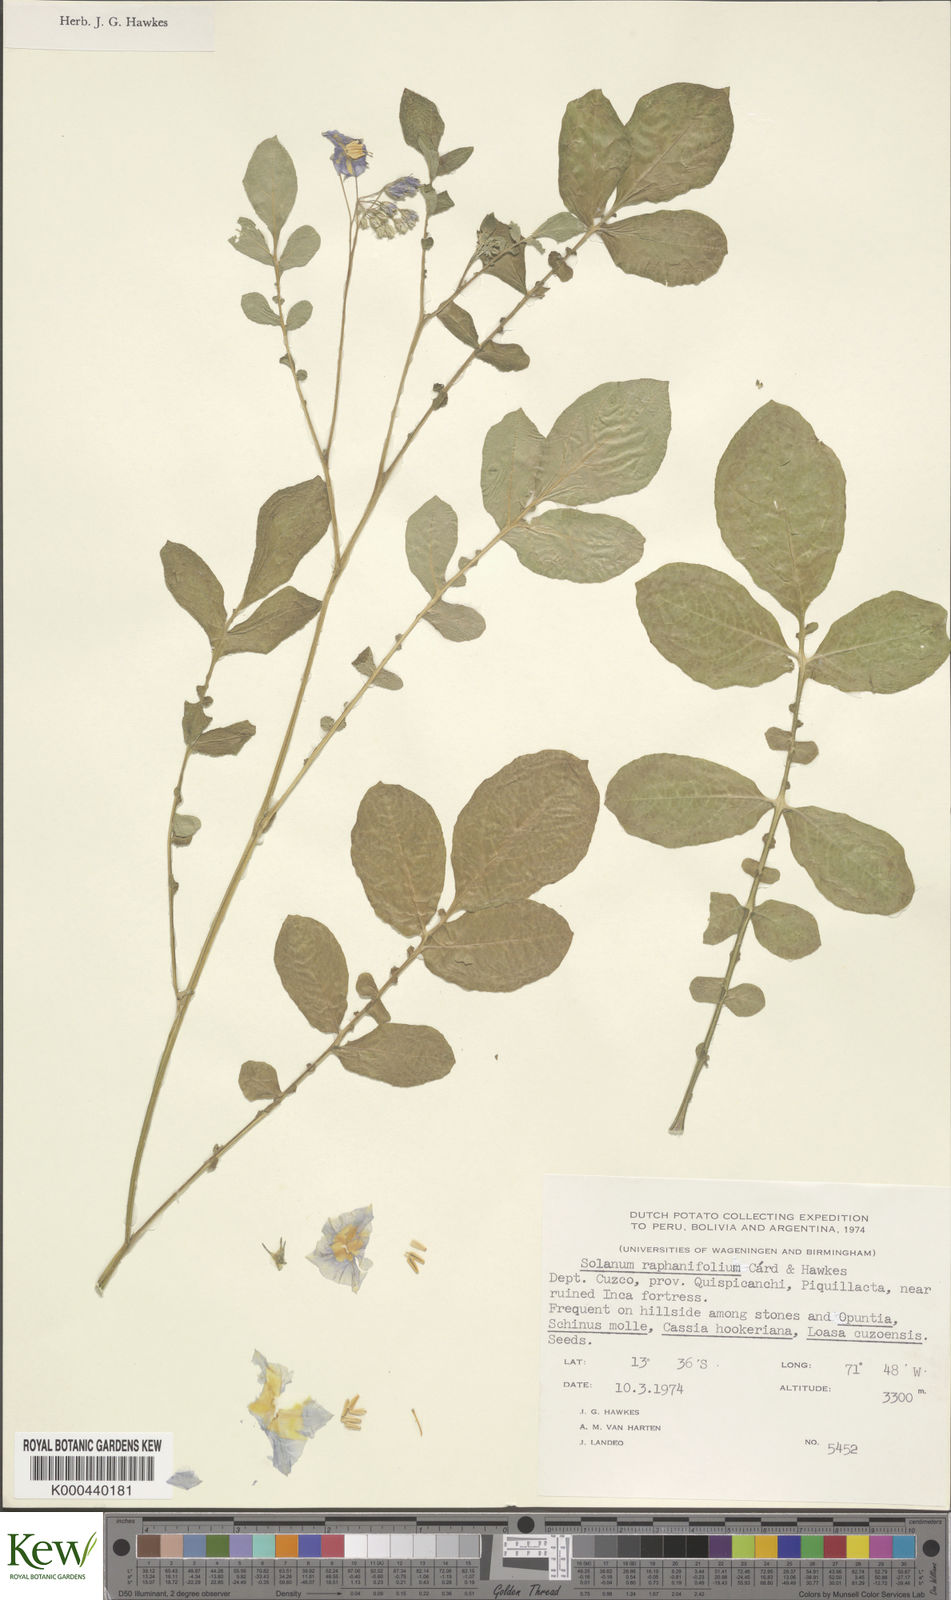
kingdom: Plantae
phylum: Tracheophyta
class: Magnoliopsida
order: Solanales
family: Solanaceae
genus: Solanum
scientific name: Solanum raphanifolium
